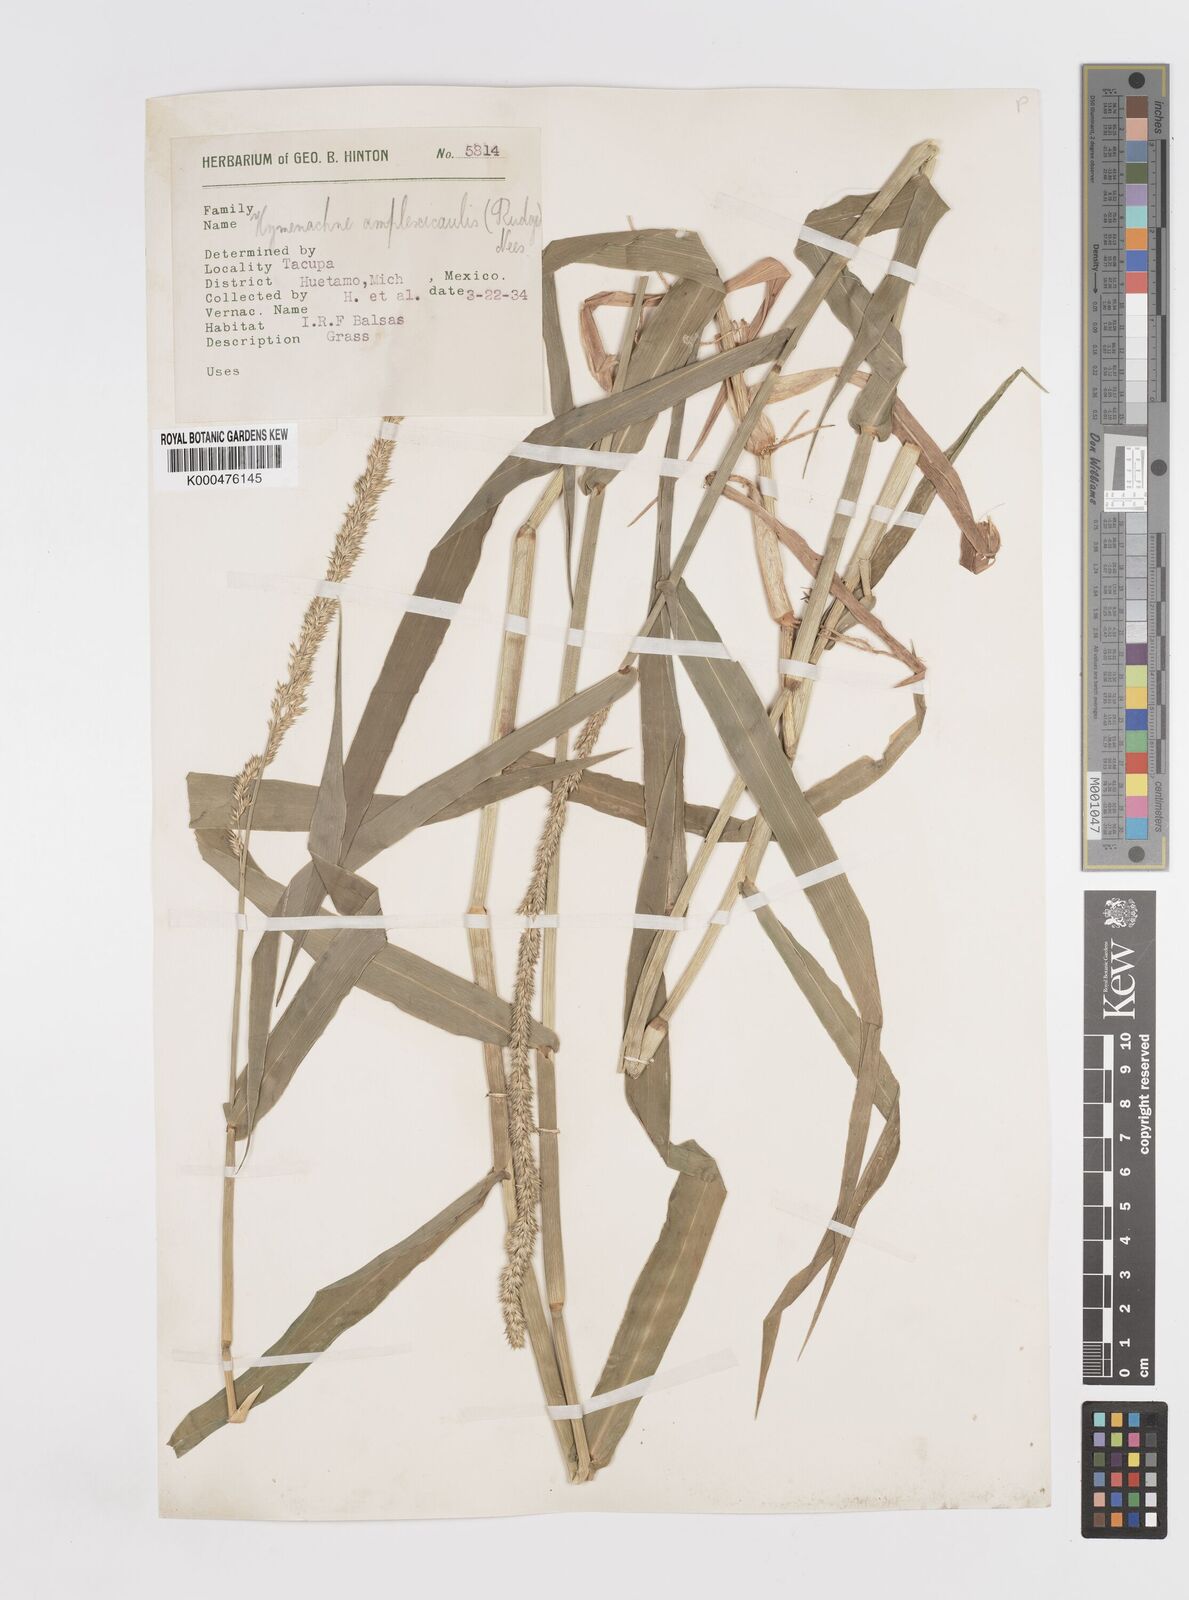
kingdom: Plantae
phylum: Tracheophyta
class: Liliopsida
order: Poales
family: Poaceae
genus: Hymenachne
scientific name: Hymenachne amplexicaulis
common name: Olive hymenachne
